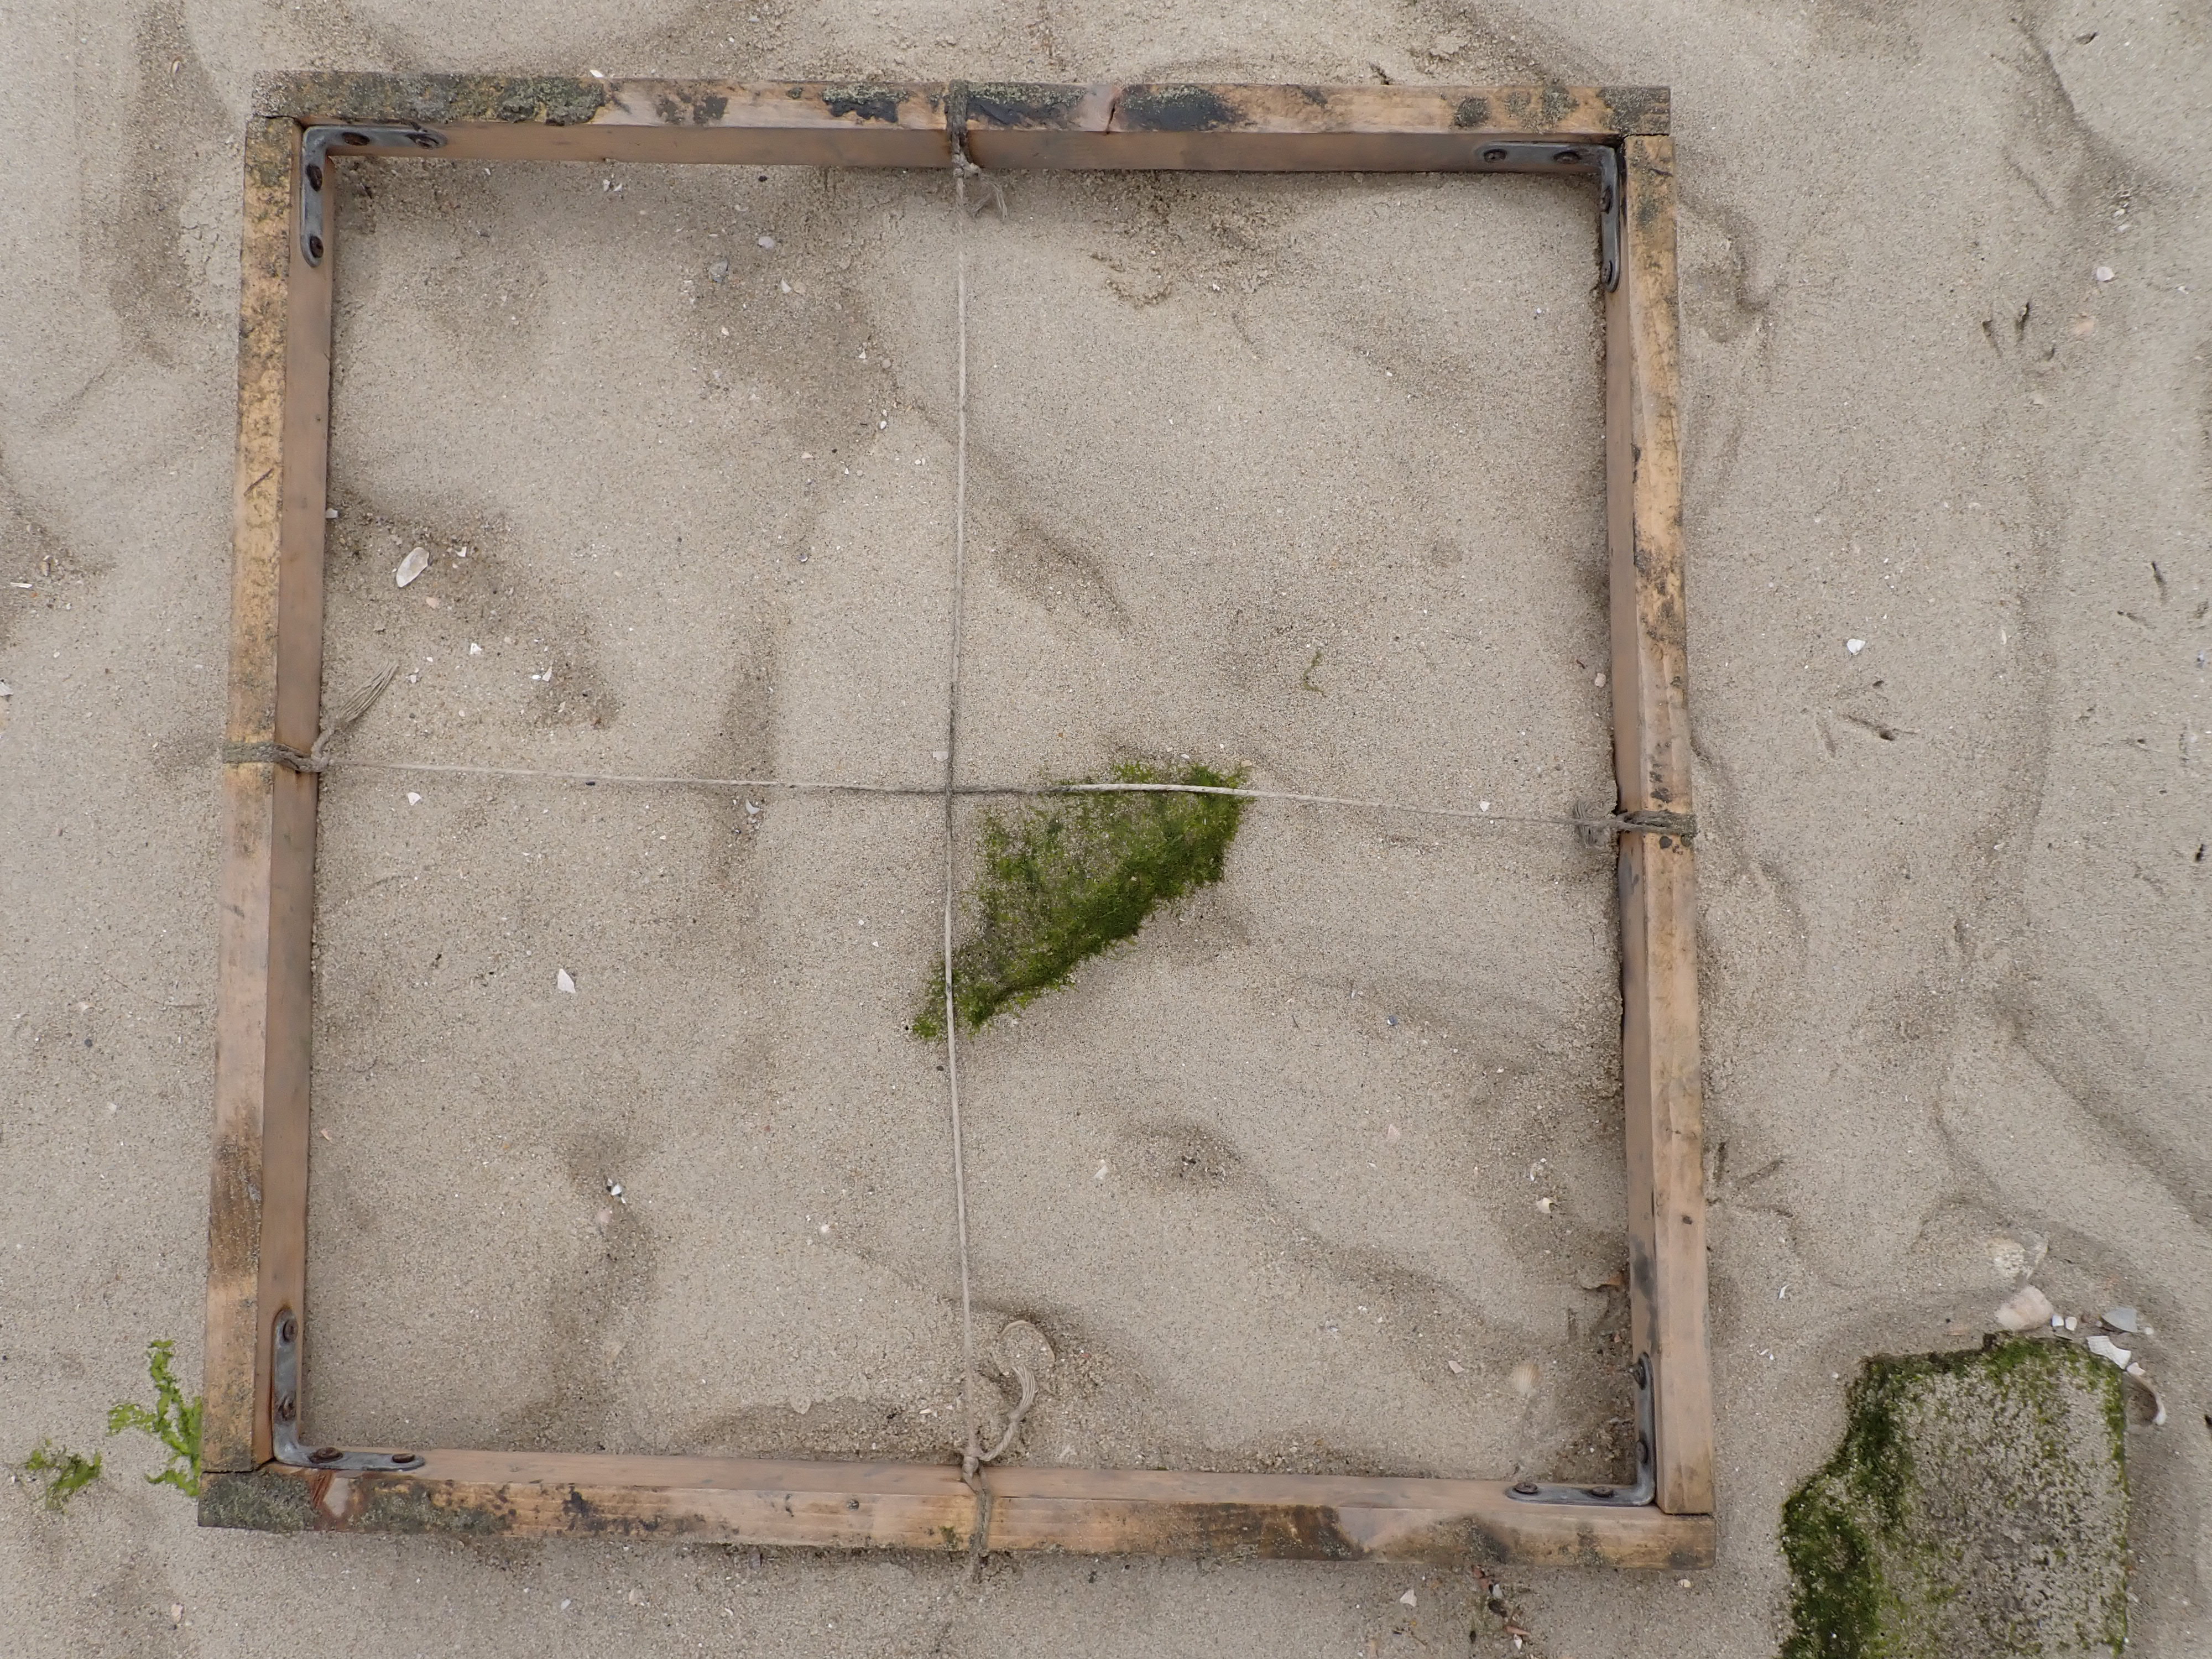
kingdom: Plantae
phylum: Chlorophyta
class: Ulvophyceae
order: Cladophorales
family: Cladophoraceae
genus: Chaetomorpha
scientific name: Chaetomorpha
